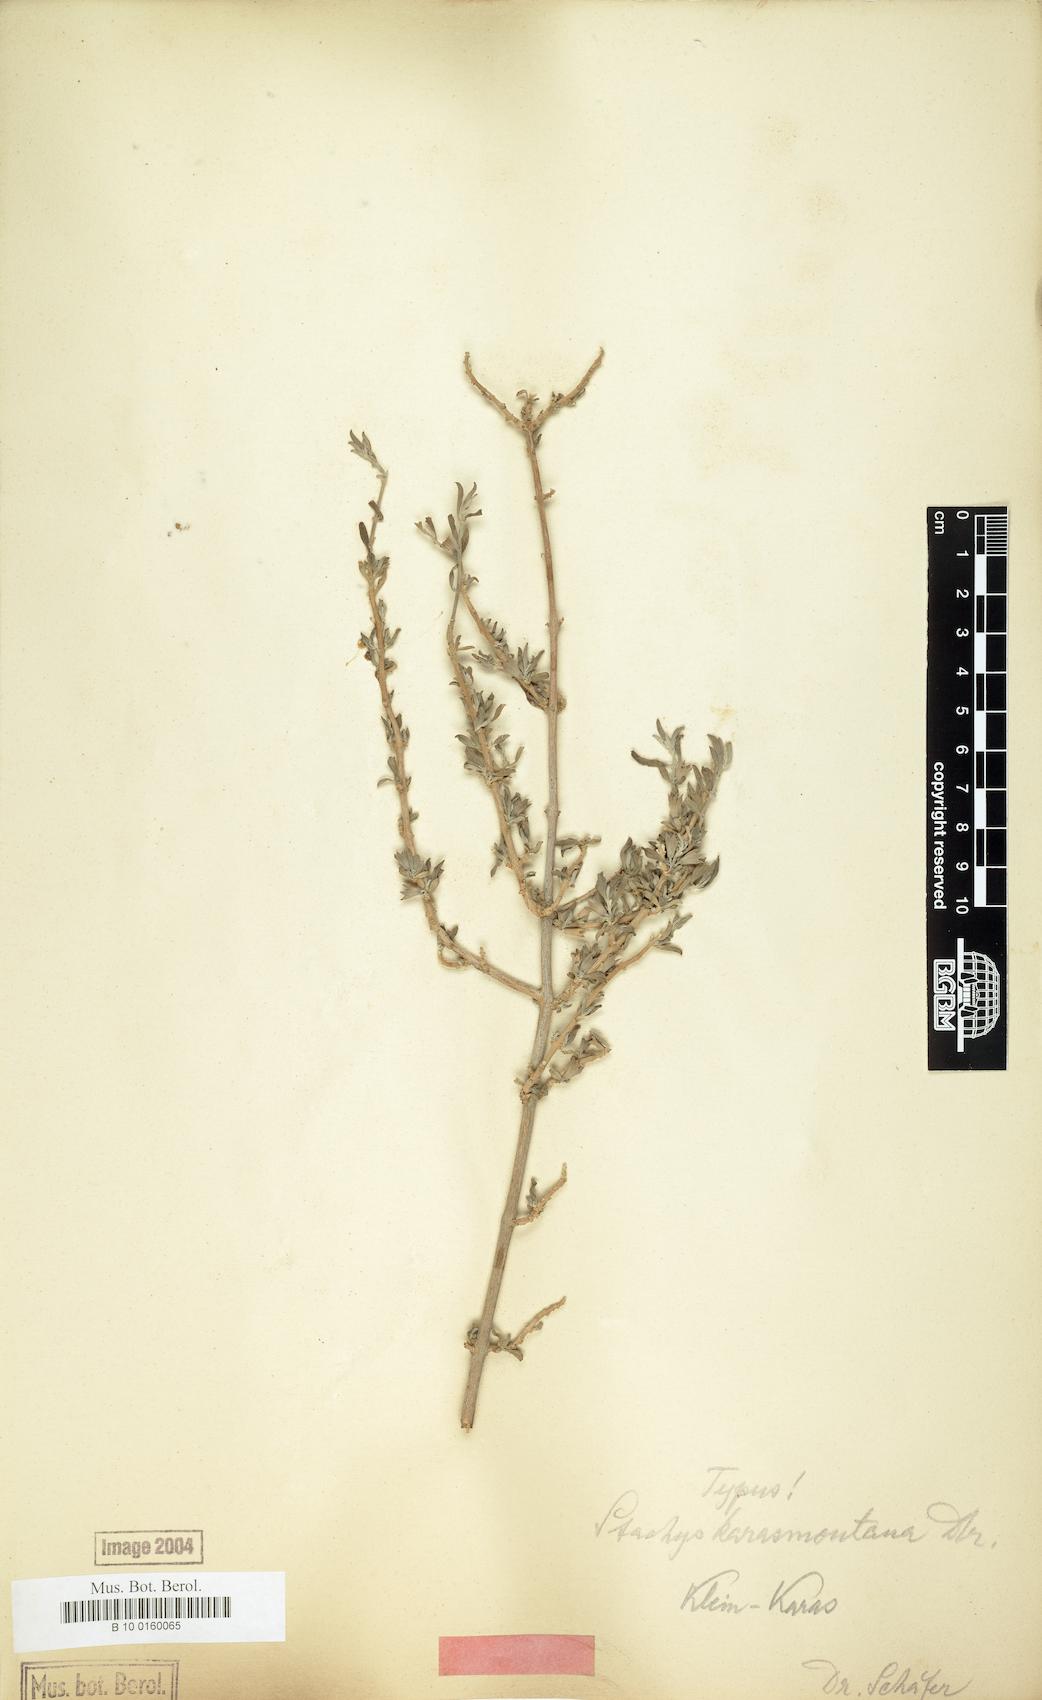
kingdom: Plantae
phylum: Tracheophyta
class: Magnoliopsida
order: Lamiales
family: Lamiaceae
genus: Stachys
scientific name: Stachys spathulata
